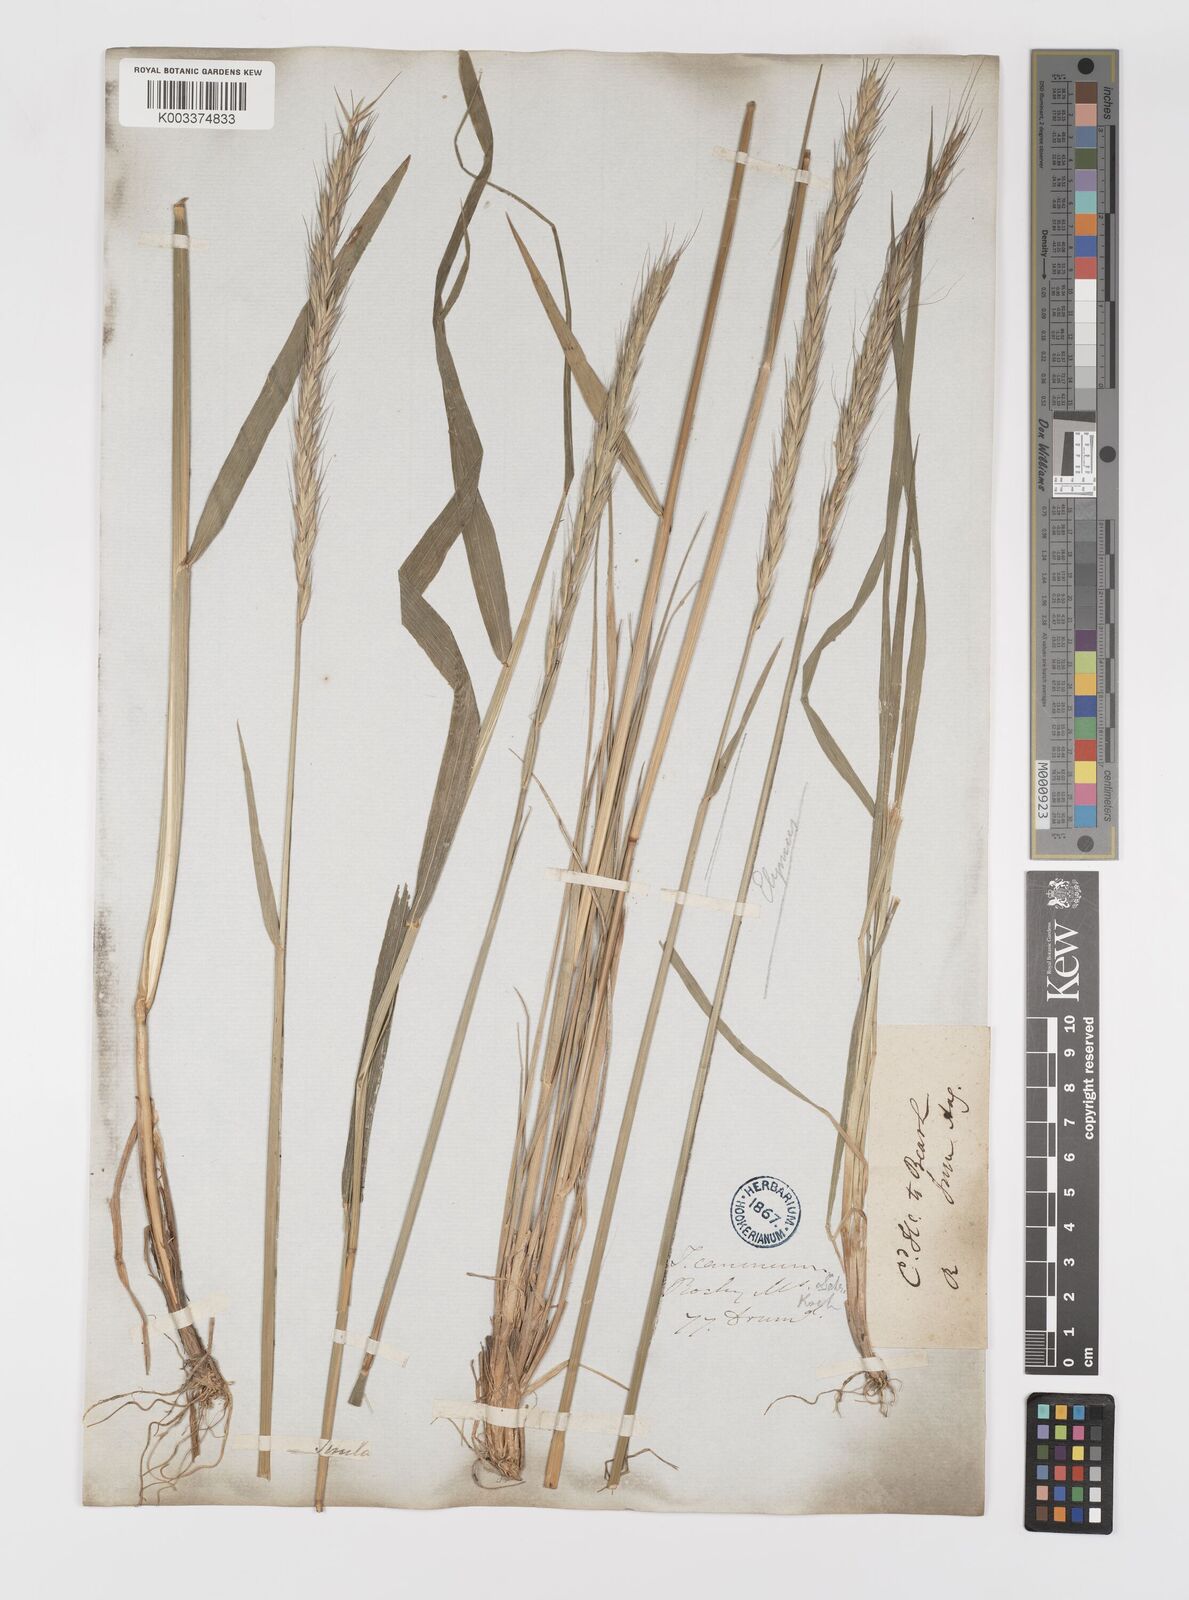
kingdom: Plantae
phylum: Tracheophyta
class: Liliopsida
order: Poales
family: Poaceae
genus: Elymus
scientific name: Elymus violaceus
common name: Arctic wheatgrass
